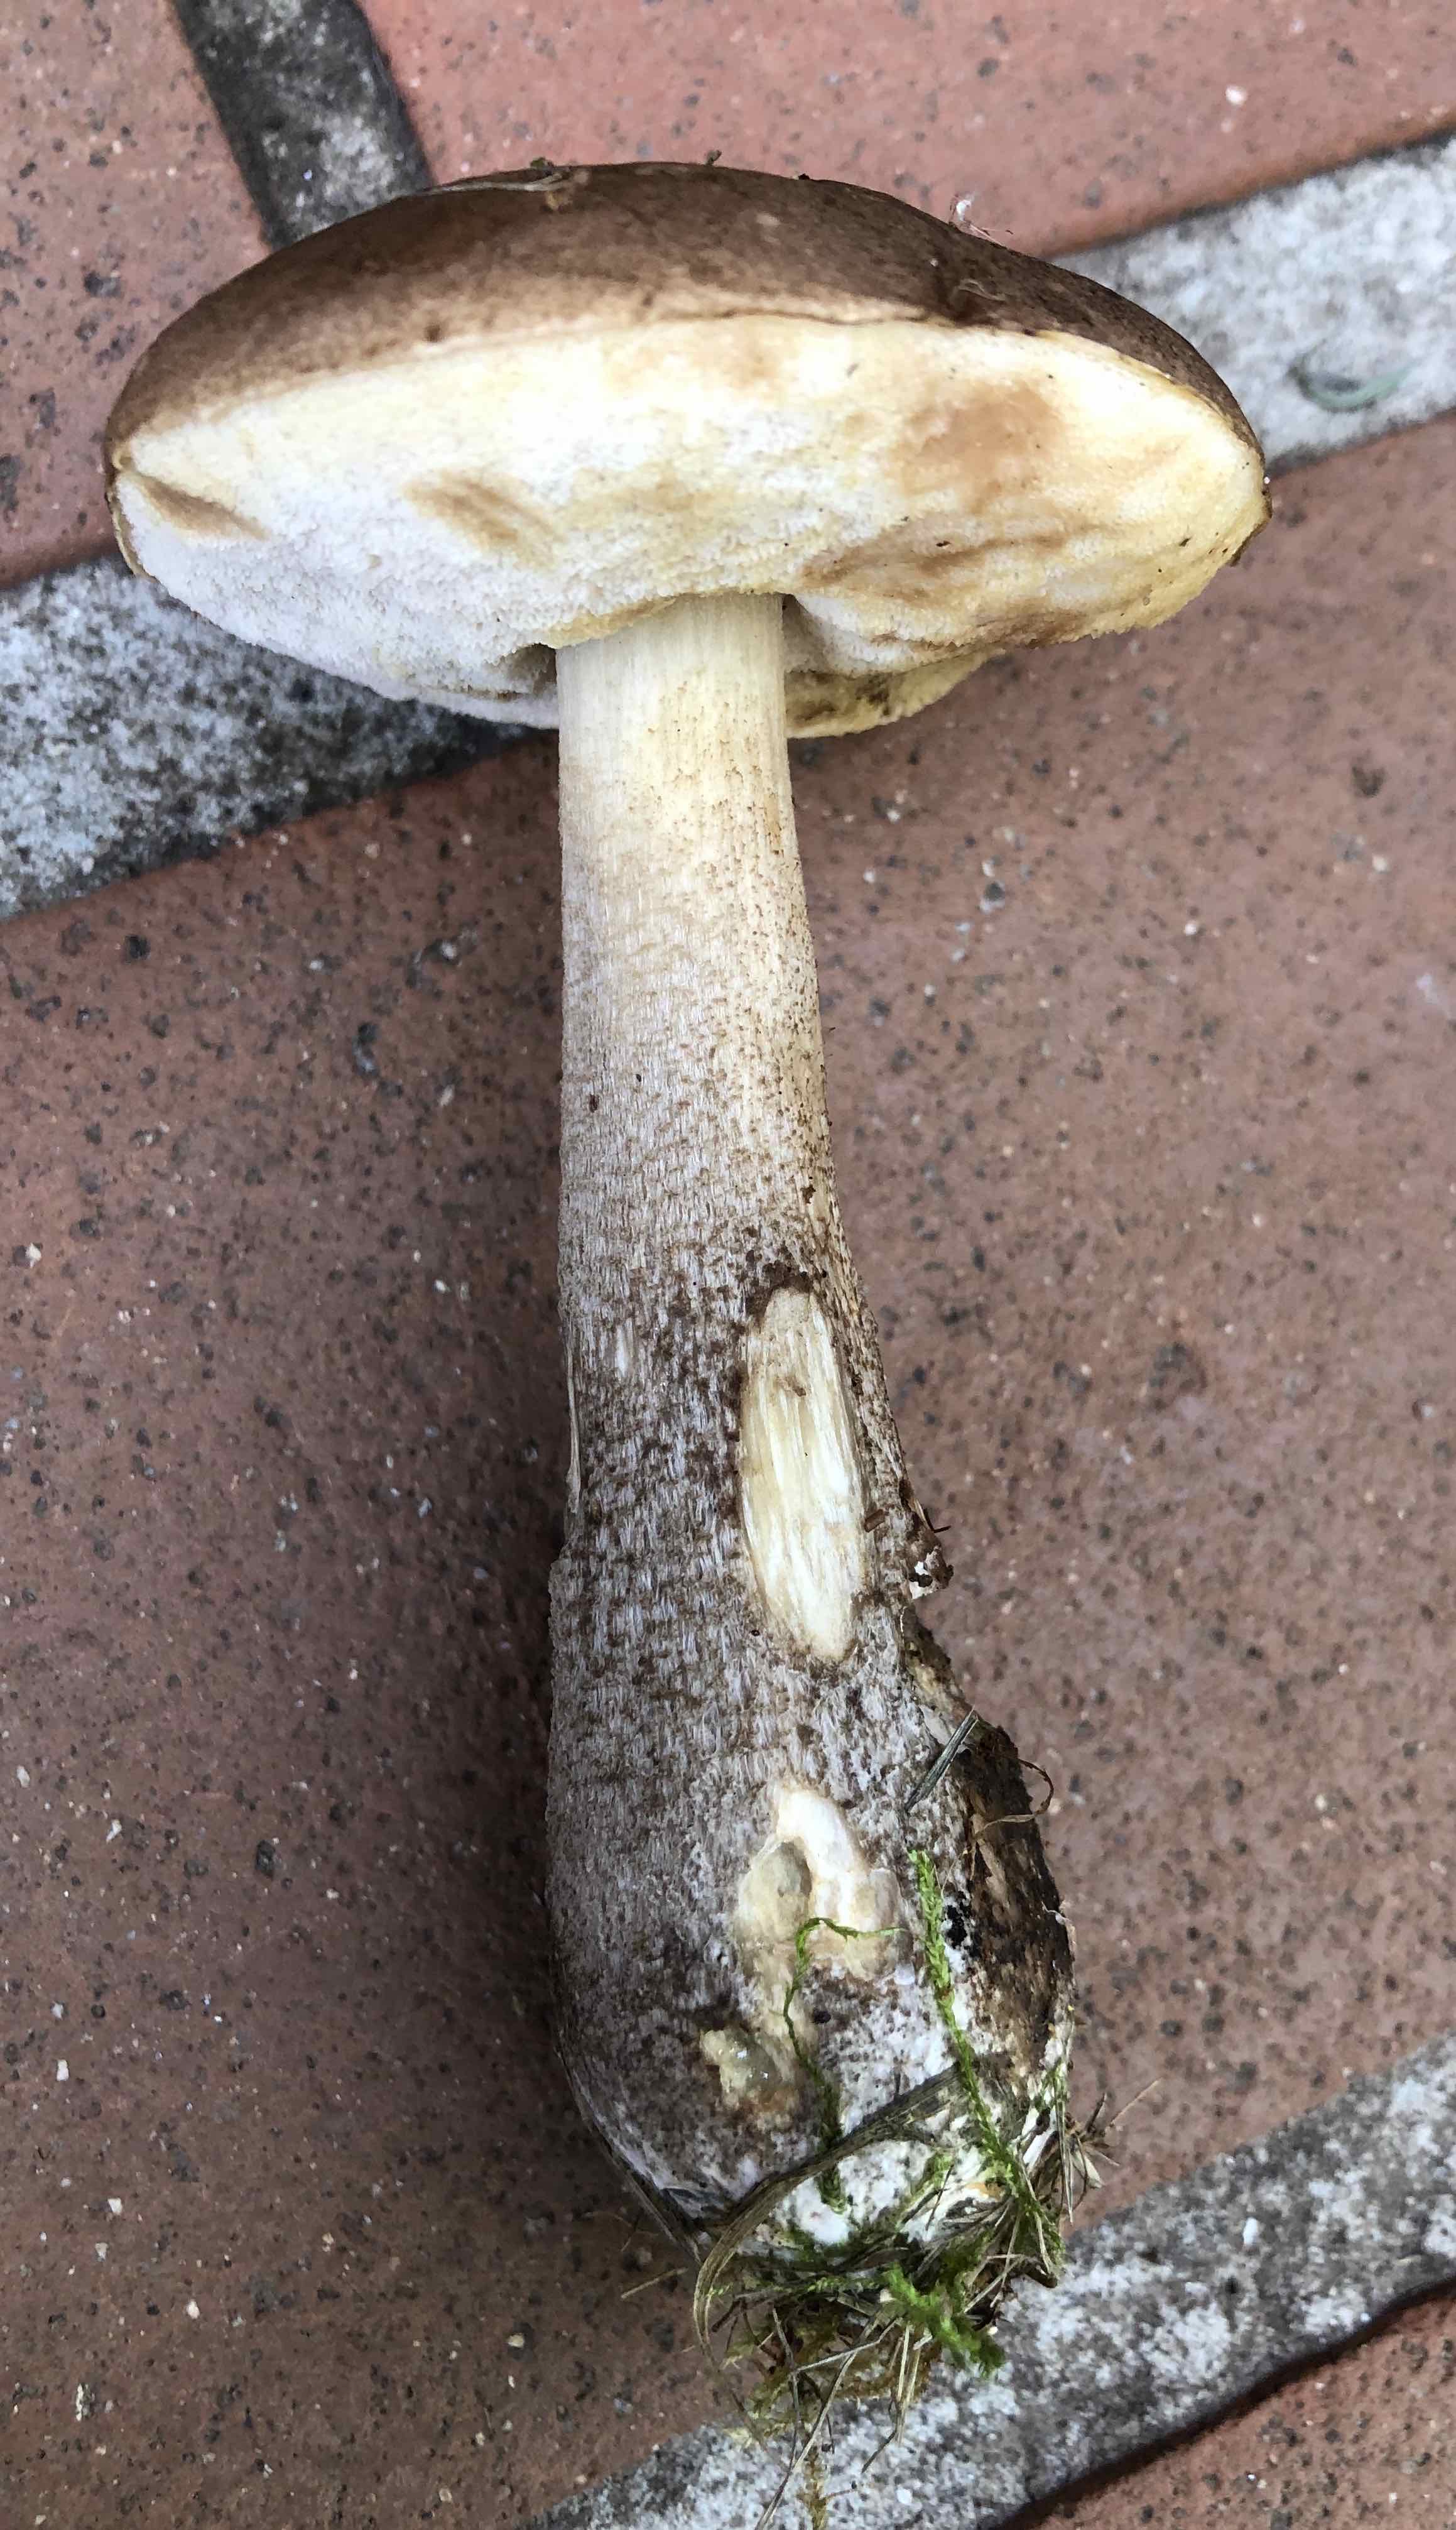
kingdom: Fungi
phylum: Basidiomycota
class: Agaricomycetes
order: Boletales
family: Boletaceae
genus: Leccinum
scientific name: Leccinum cyaneobasileucum
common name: almindelig skælrørhat
